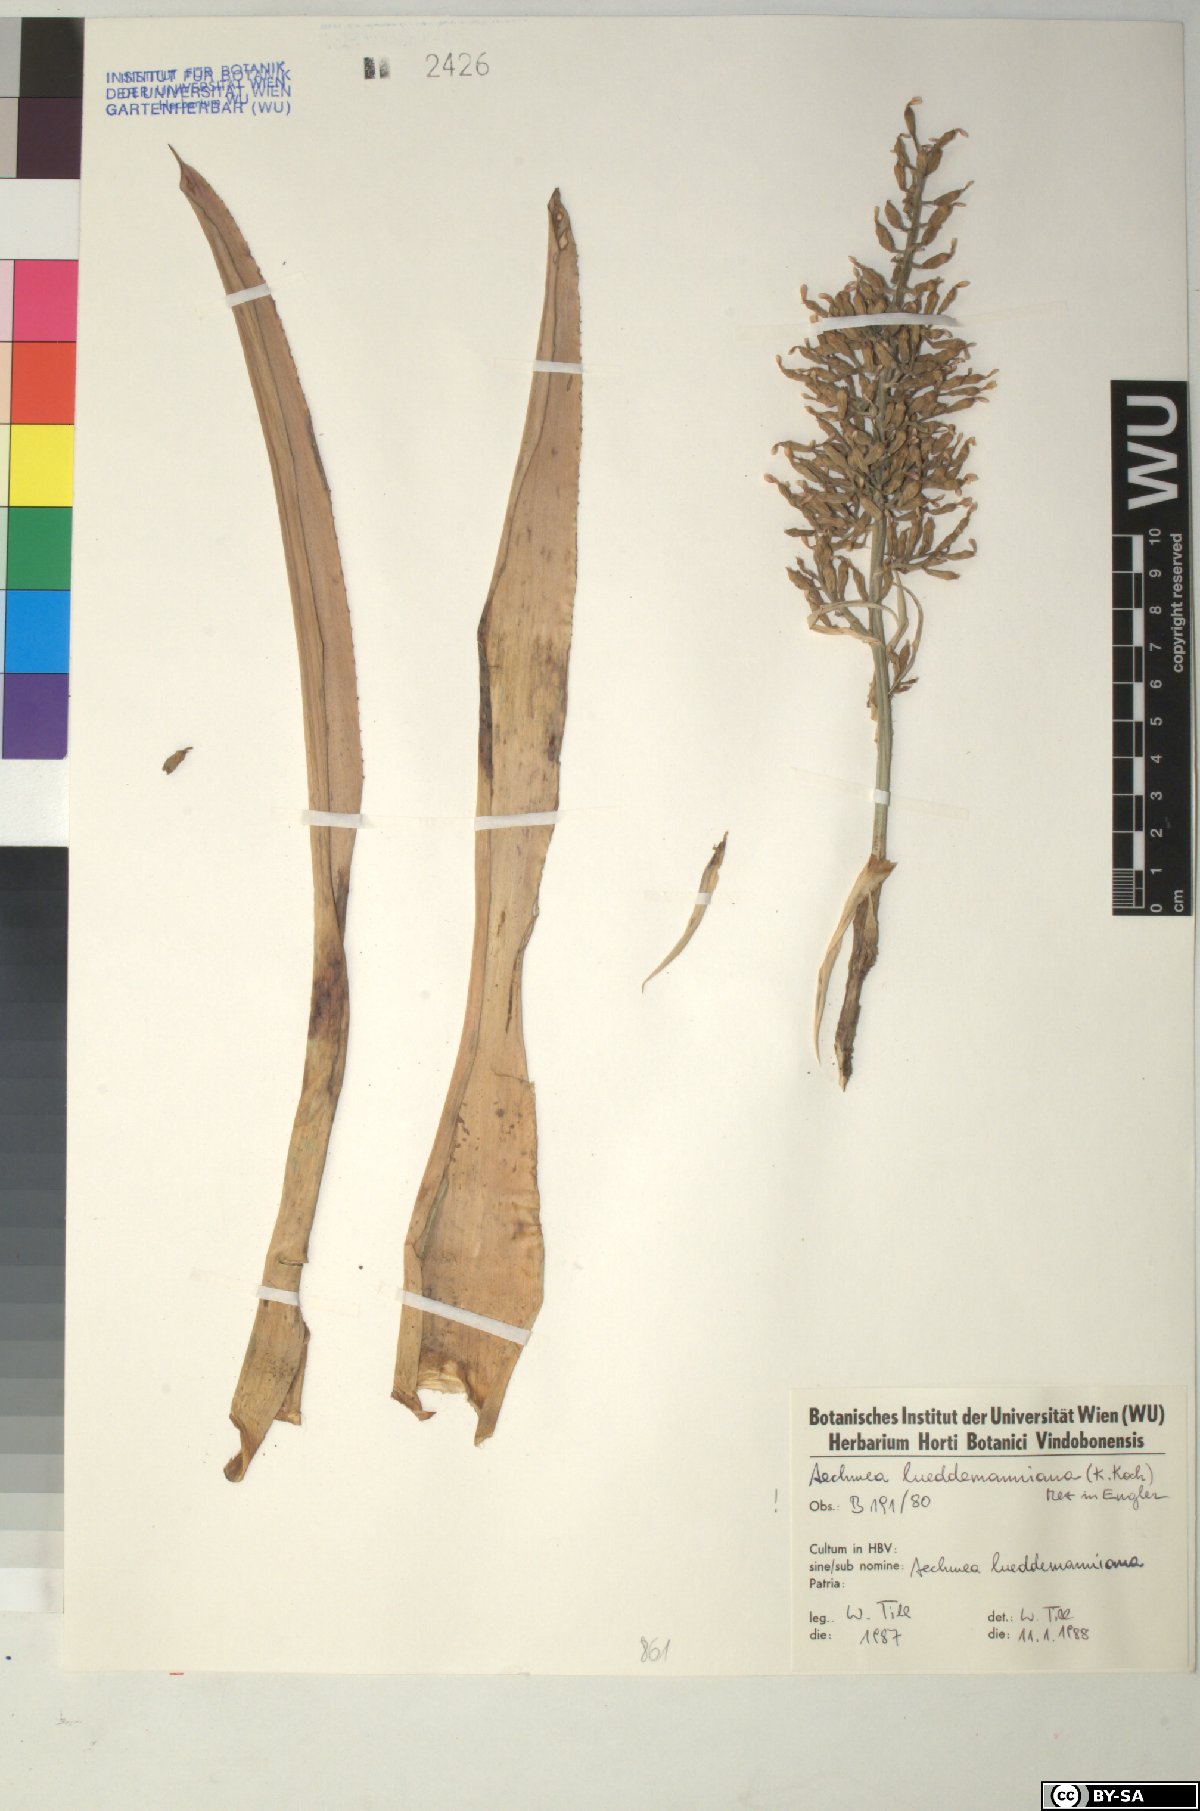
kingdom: Plantae
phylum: Tracheophyta
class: Liliopsida
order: Poales
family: Bromeliaceae
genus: Aechmea
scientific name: Aechmea lueddemanniana
